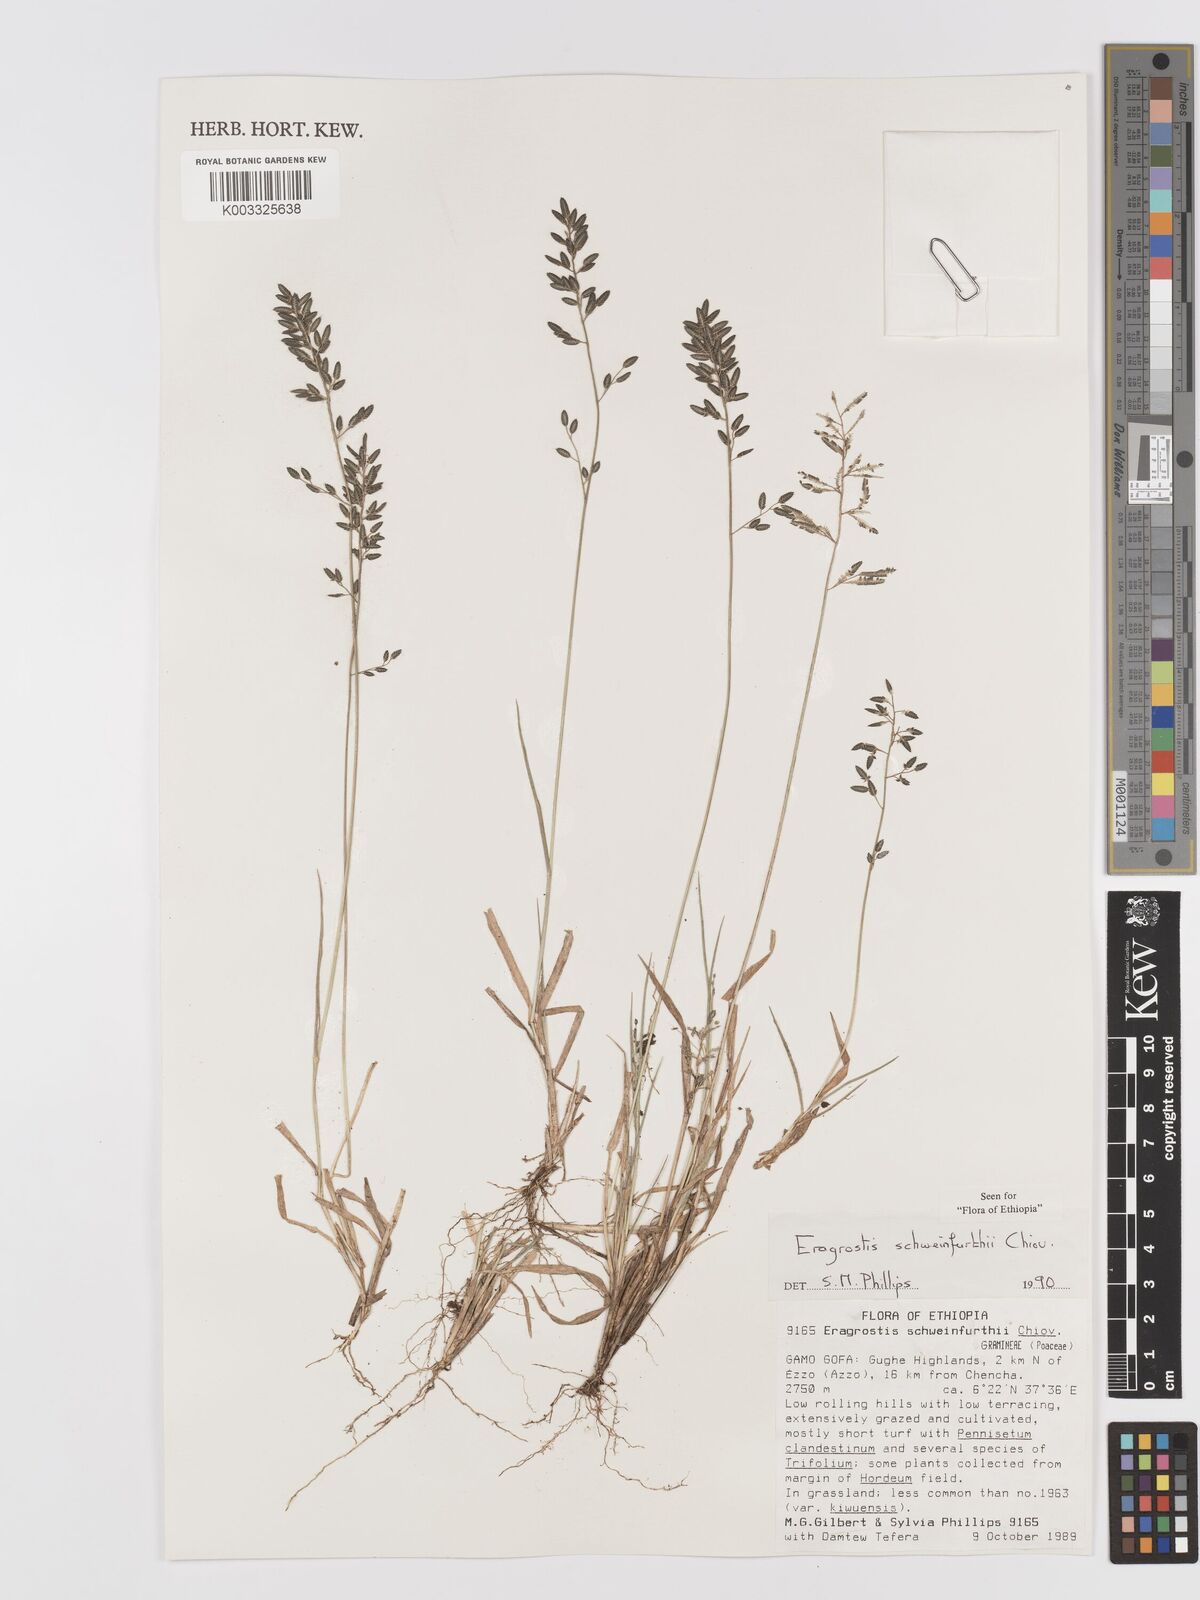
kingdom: Plantae
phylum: Tracheophyta
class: Liliopsida
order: Poales
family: Poaceae
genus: Eragrostis
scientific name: Eragrostis schweinfurthii
